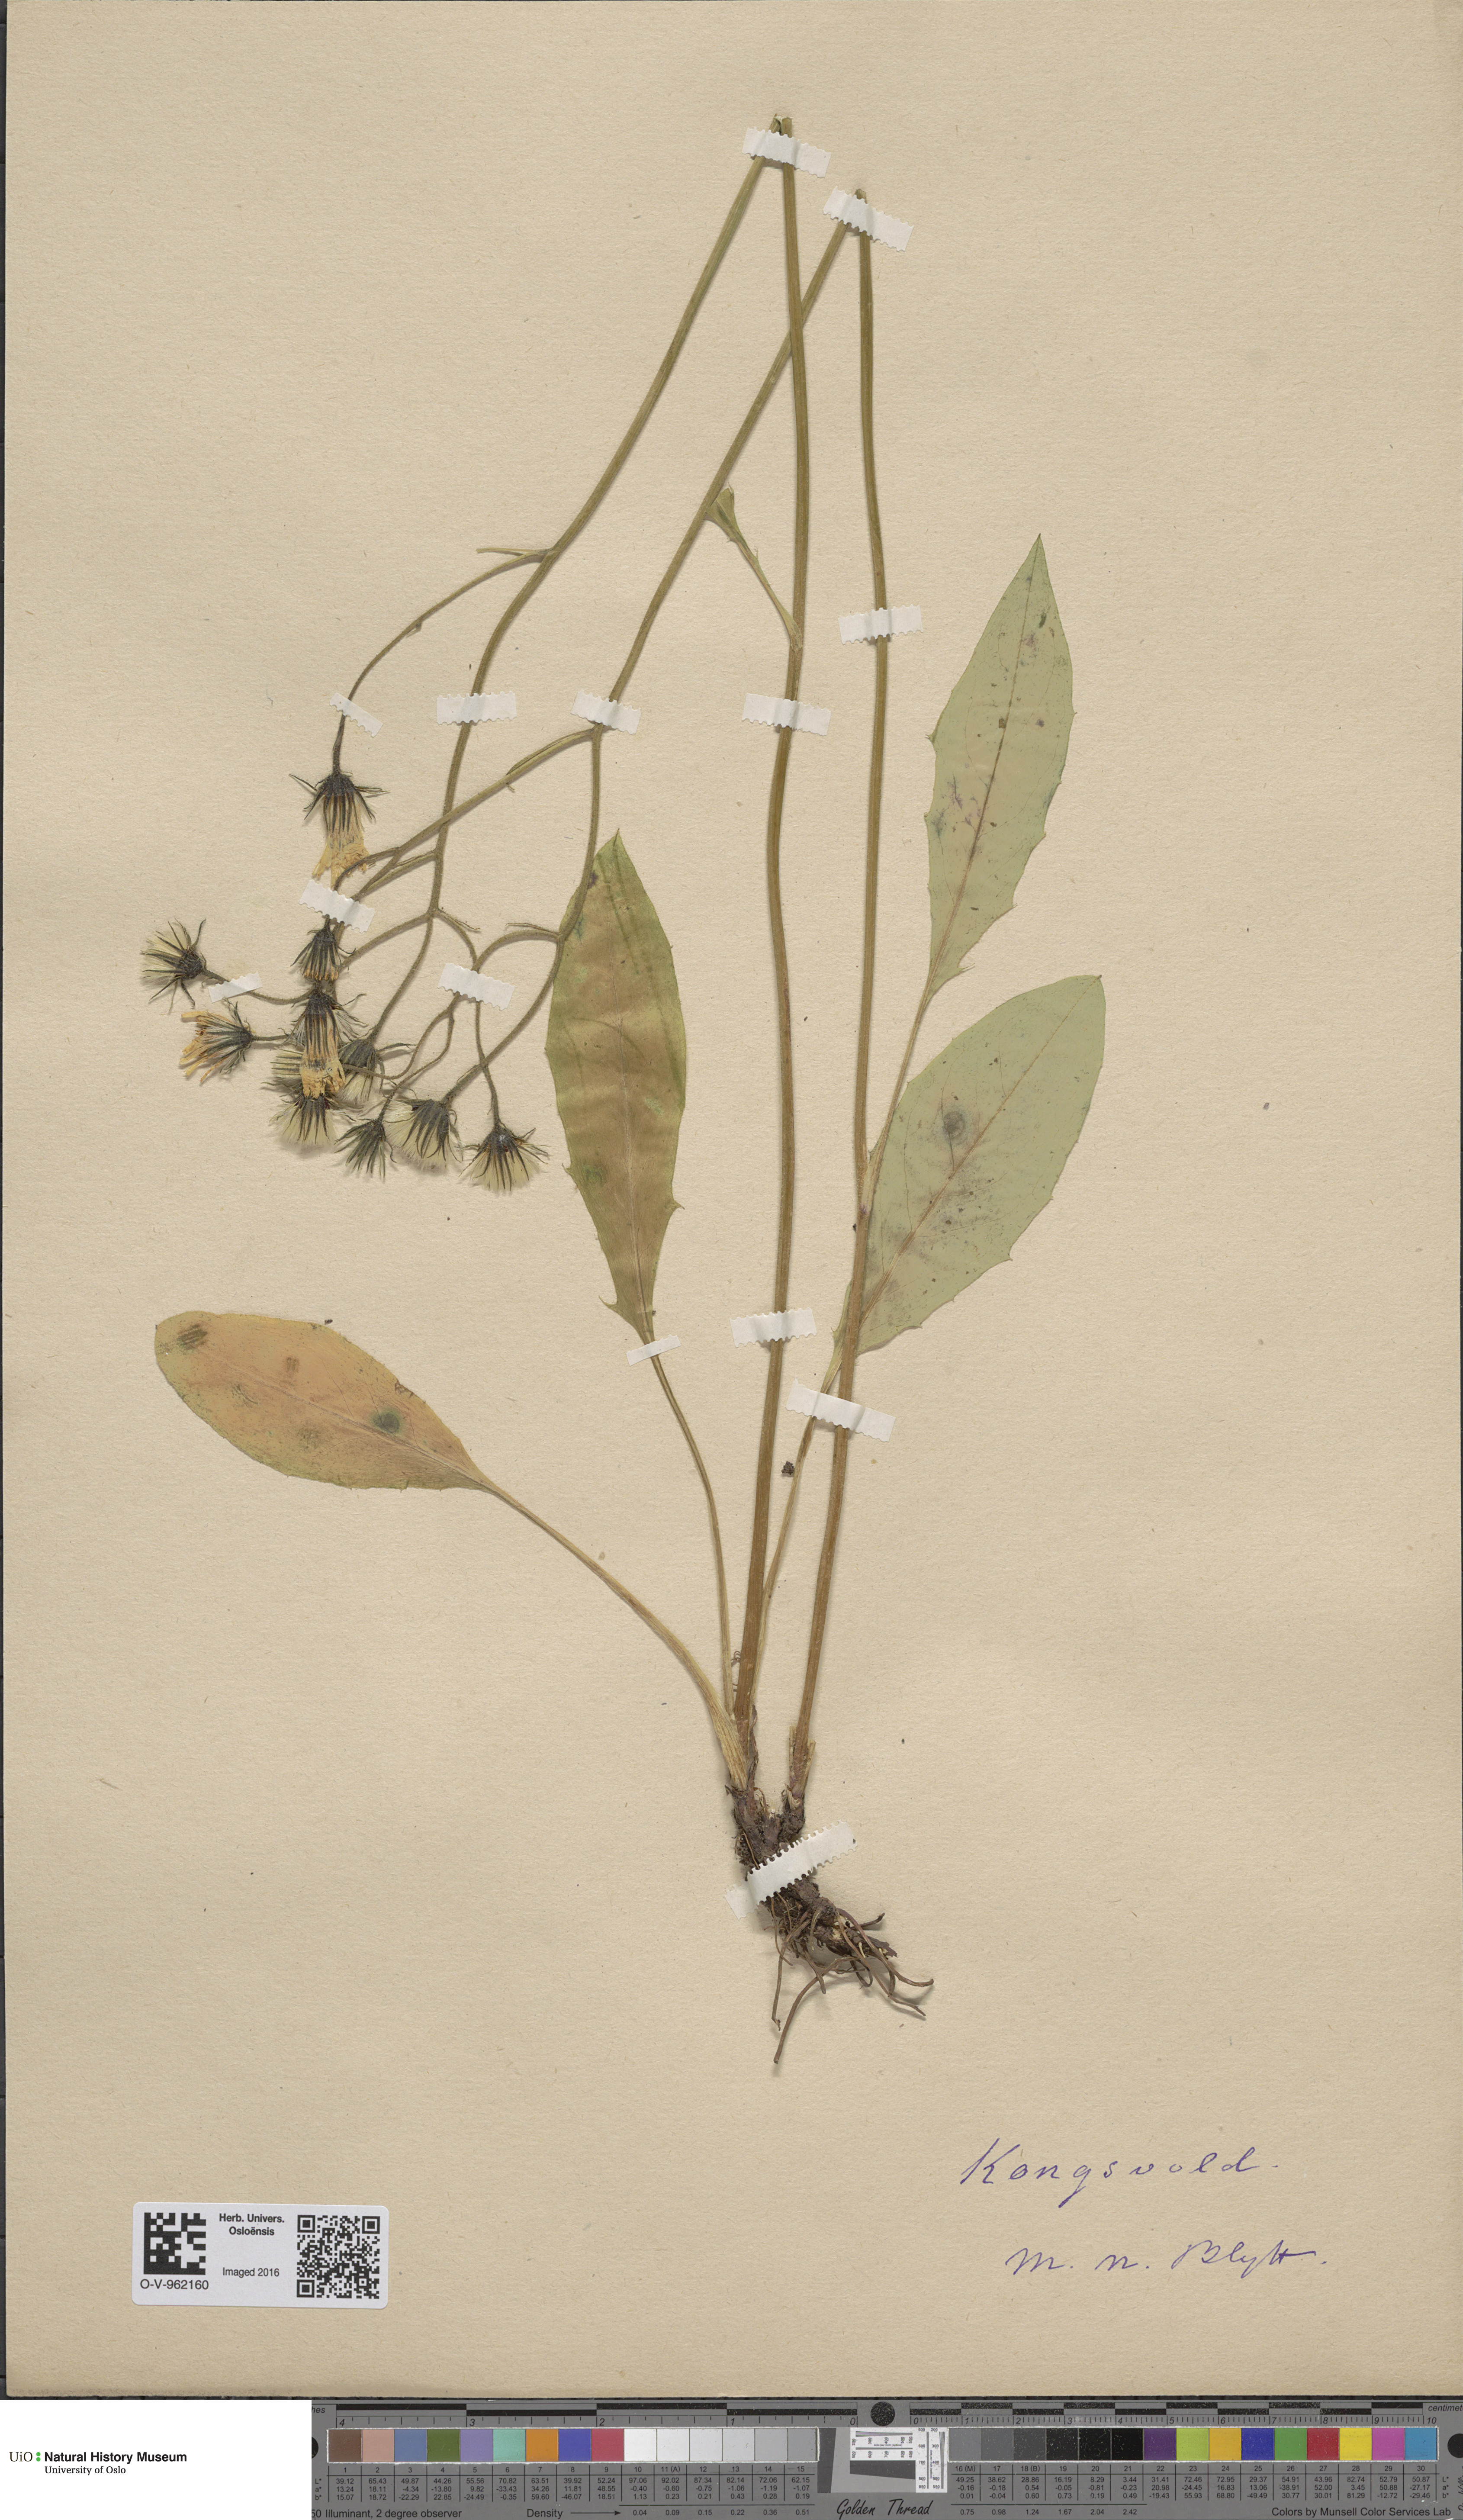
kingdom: Plantae
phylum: Tracheophyta
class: Magnoliopsida
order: Asterales
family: Asteraceae
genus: Hieracium
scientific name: Hieracium
